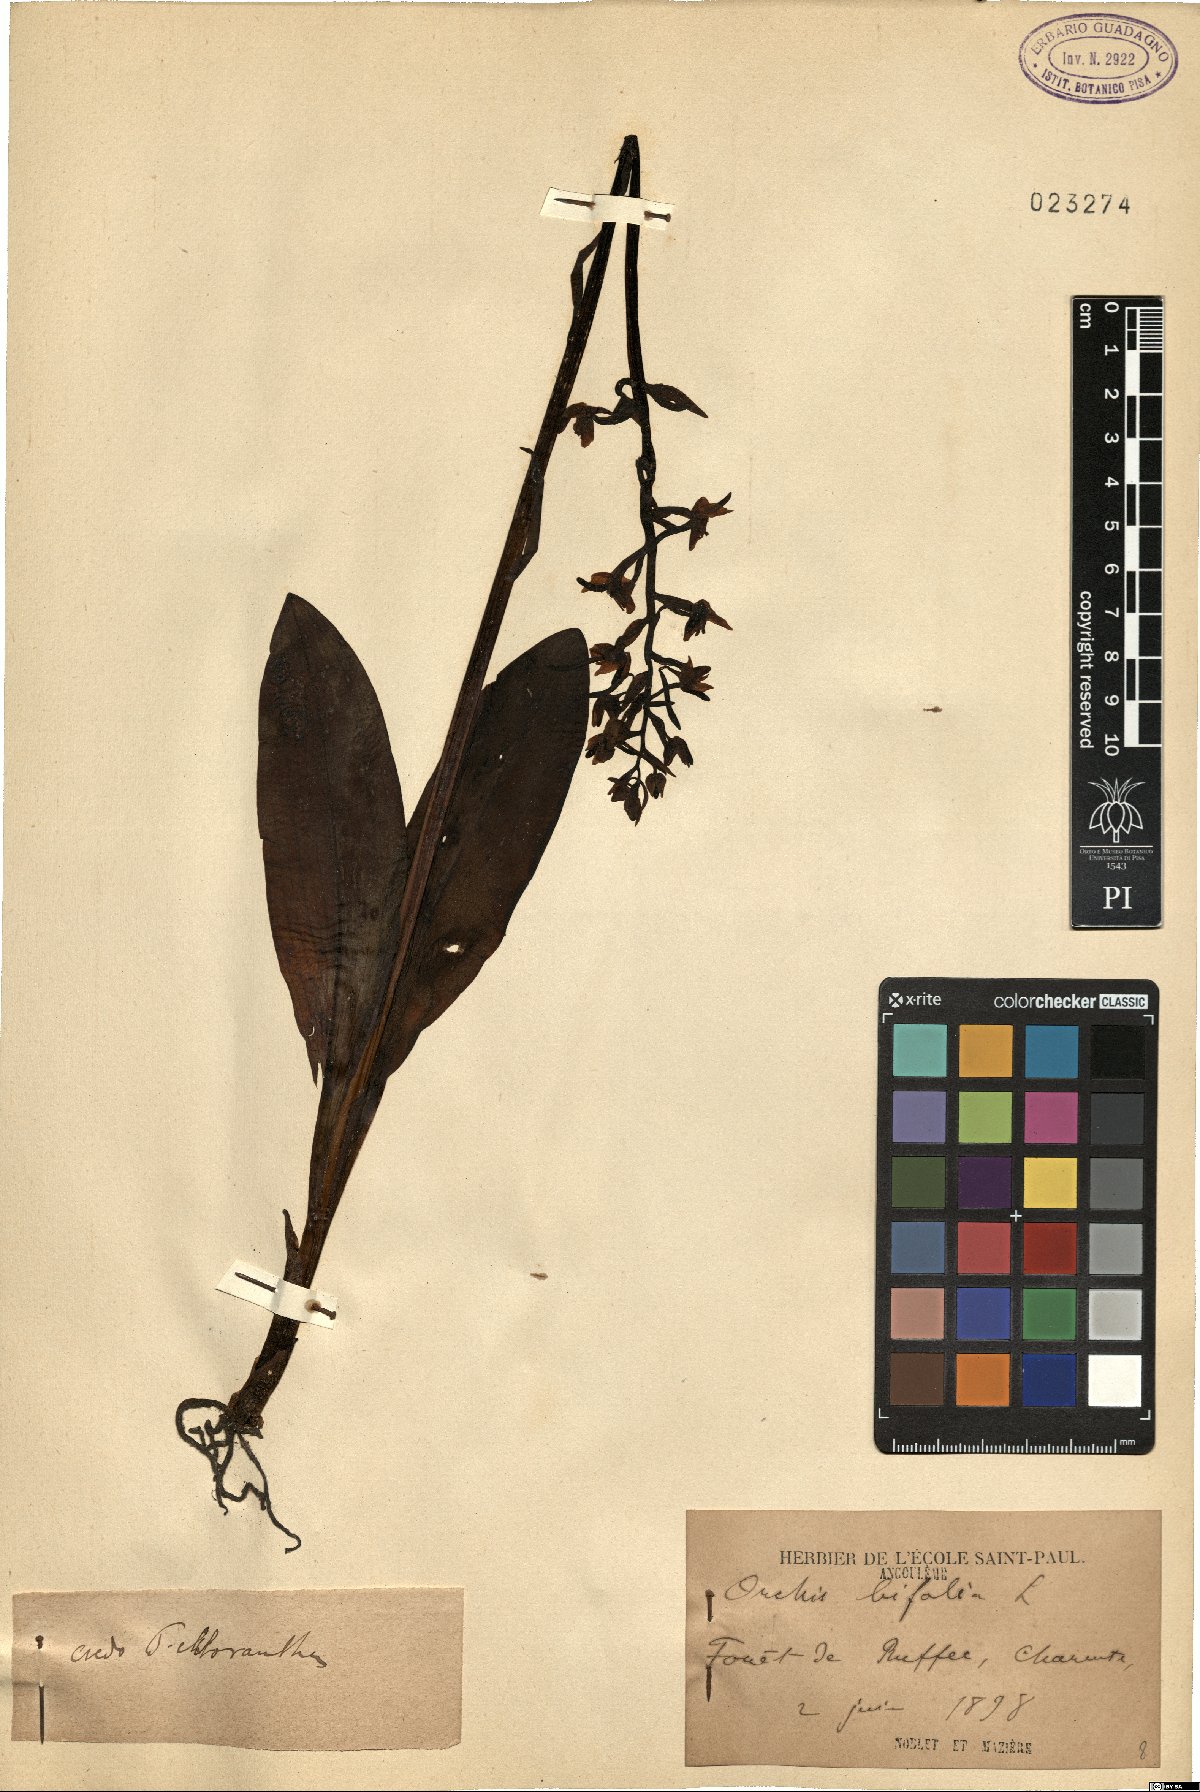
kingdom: Plantae
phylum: Tracheophyta
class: Liliopsida
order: Asparagales
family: Orchidaceae
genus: Platanthera
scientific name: Platanthera bifolia
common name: Lesser butterfly-orchid
